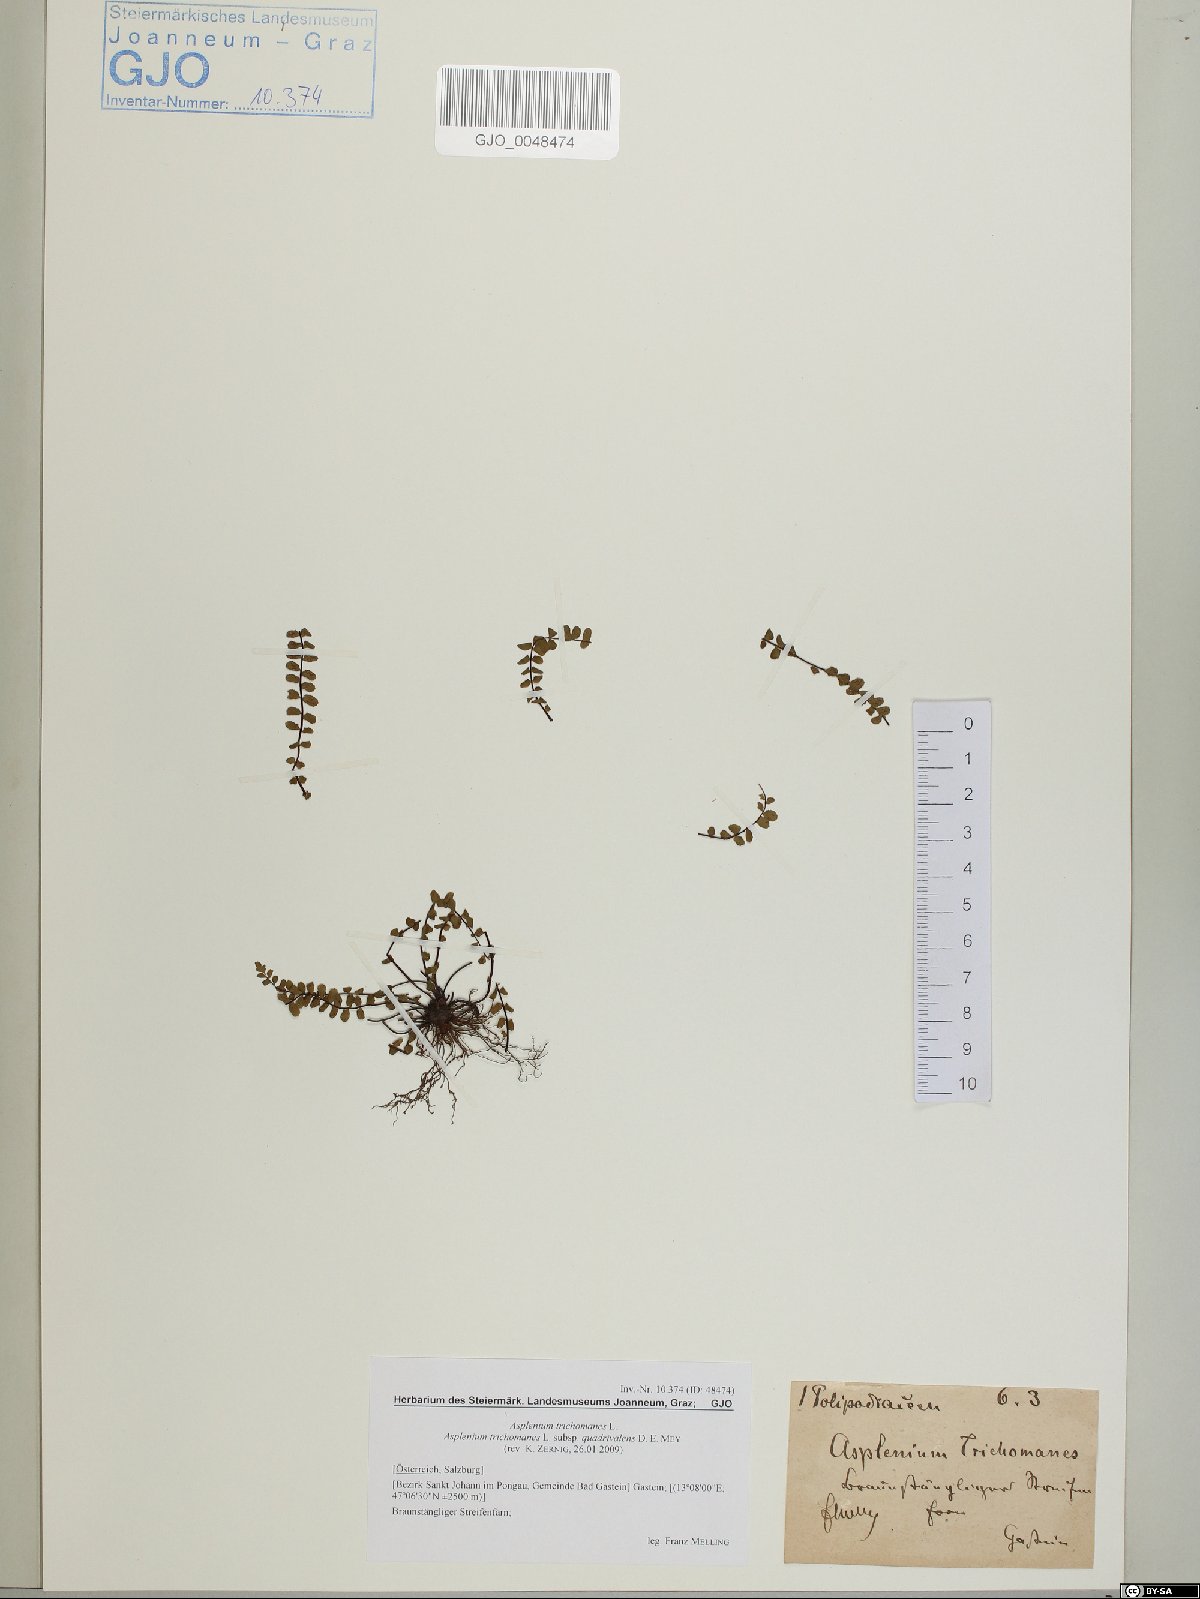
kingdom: Plantae
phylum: Tracheophyta
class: Polypodiopsida
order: Polypodiales
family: Aspleniaceae
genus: Asplenium
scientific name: Asplenium quadrivalens
